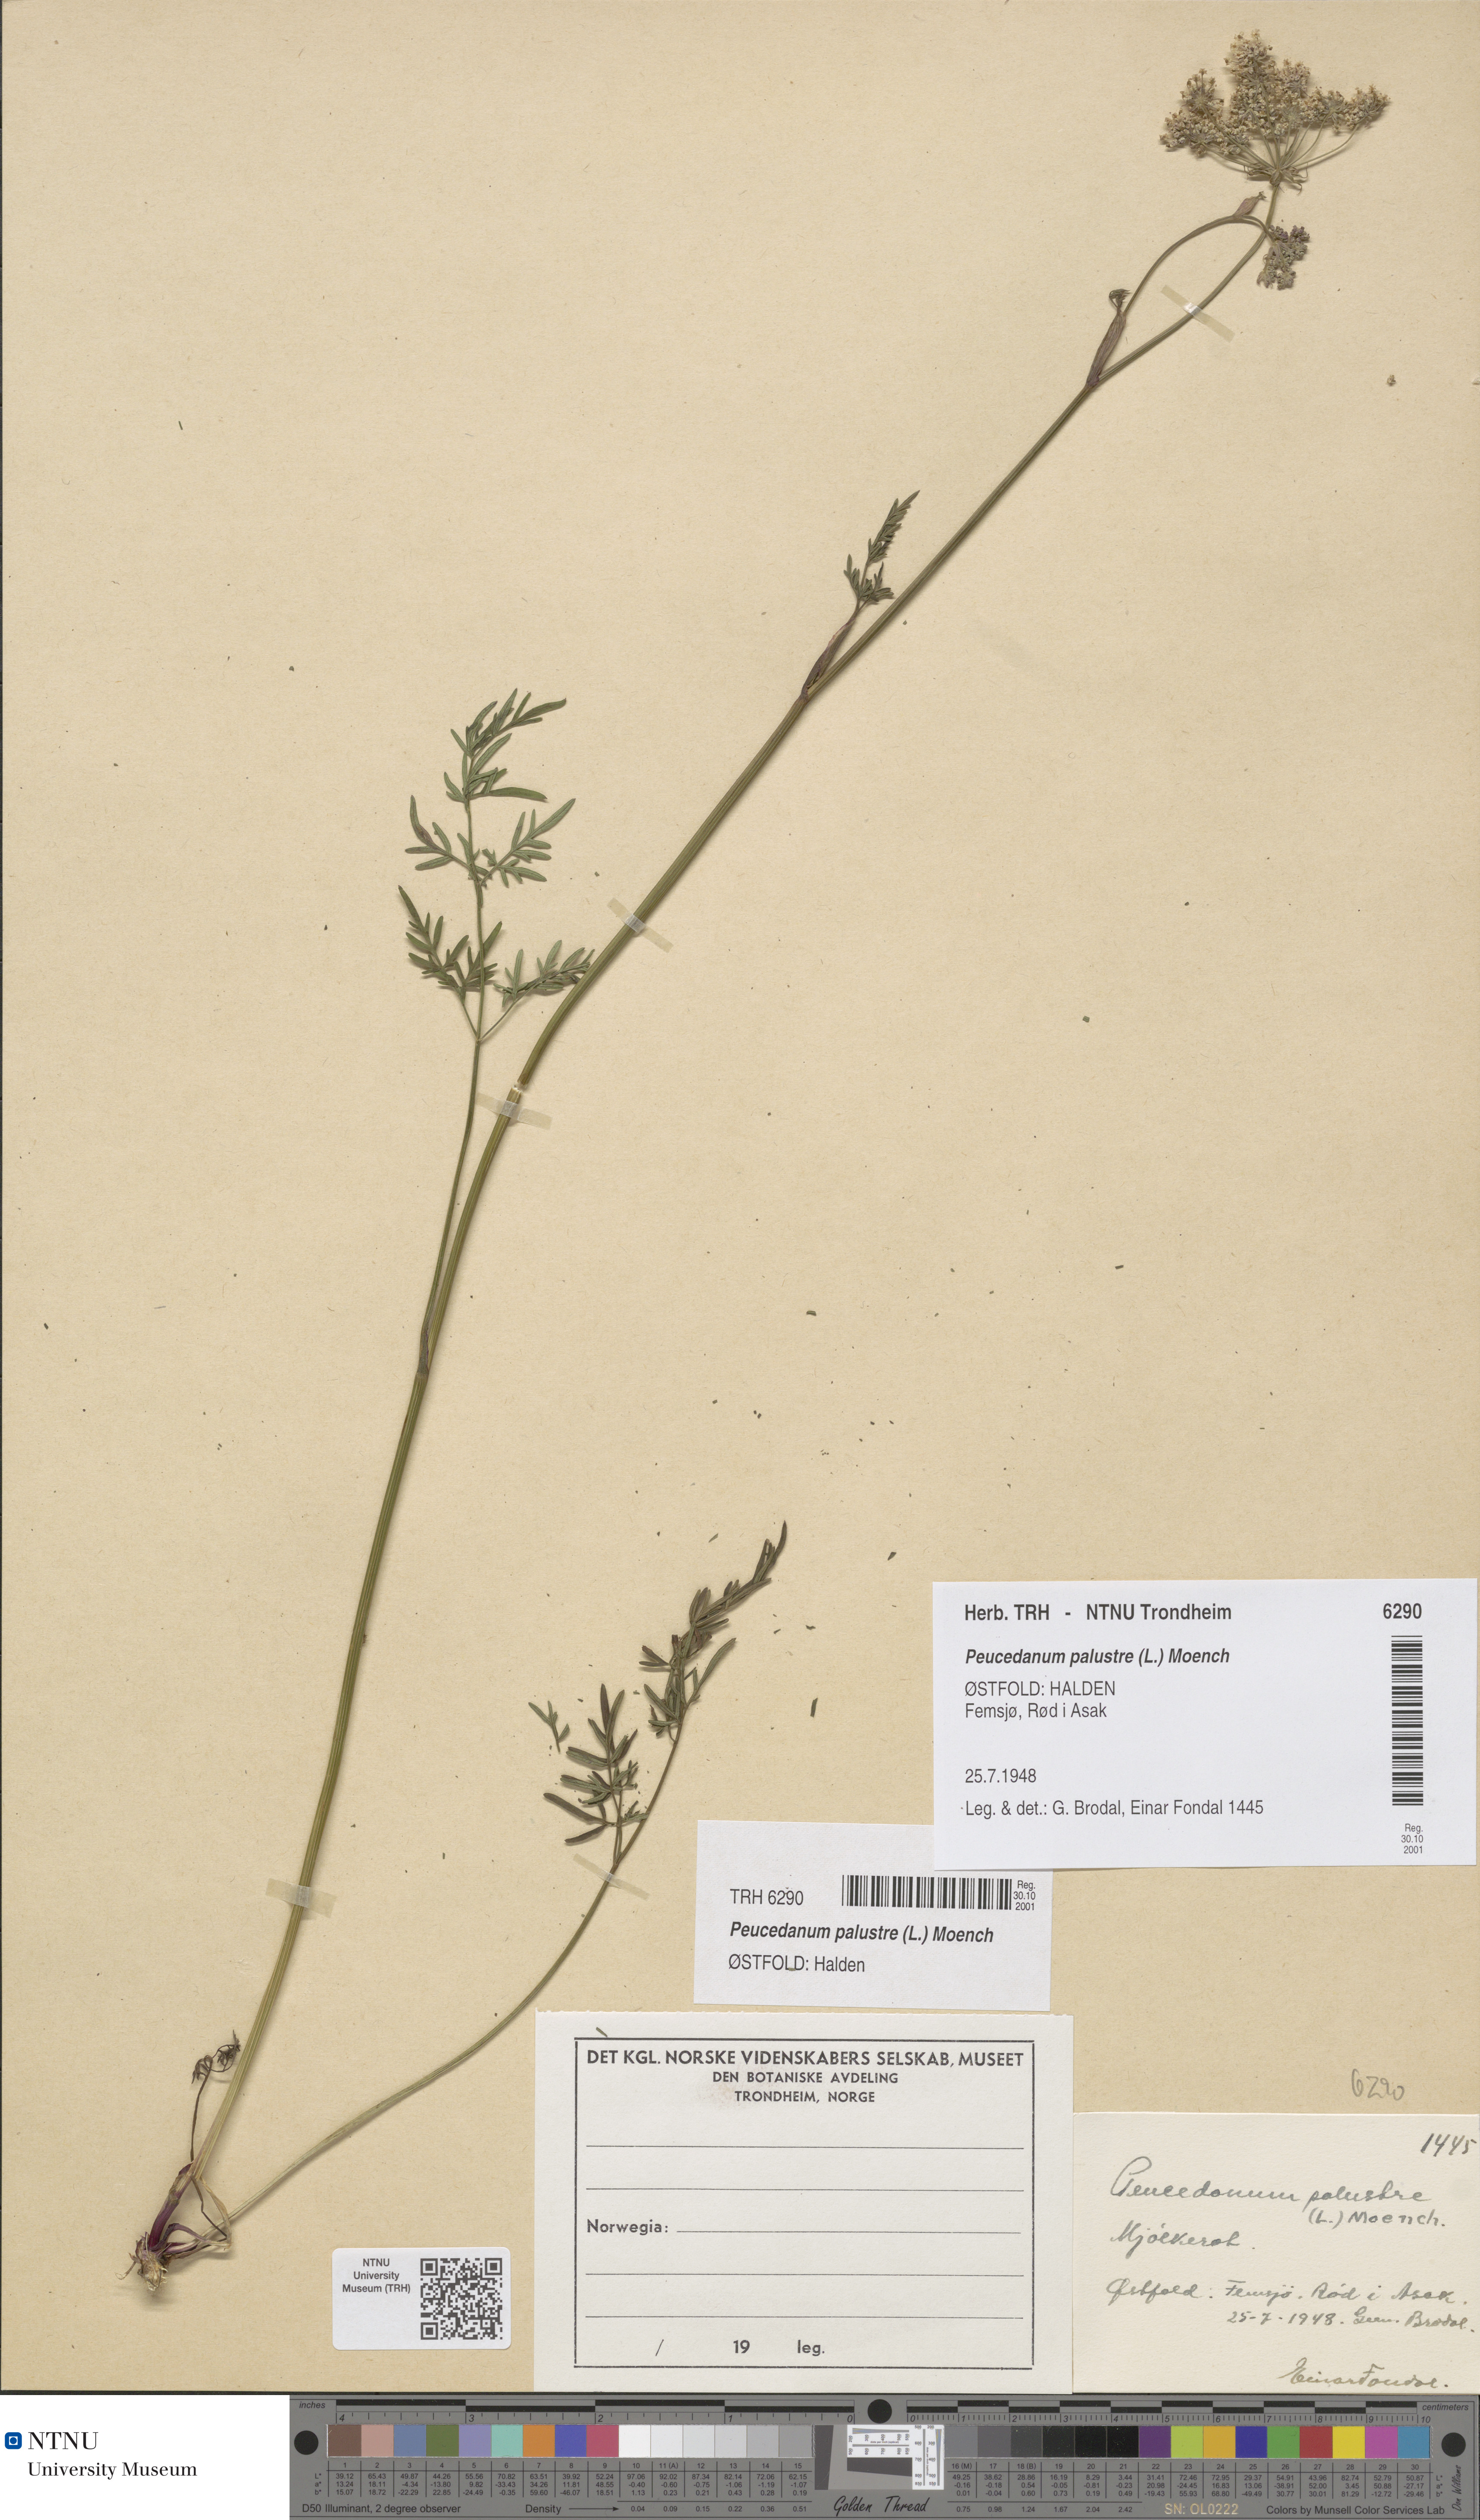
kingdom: Plantae
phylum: Tracheophyta
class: Magnoliopsida
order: Apiales
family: Apiaceae
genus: Thysselinum
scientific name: Thysselinum palustre
